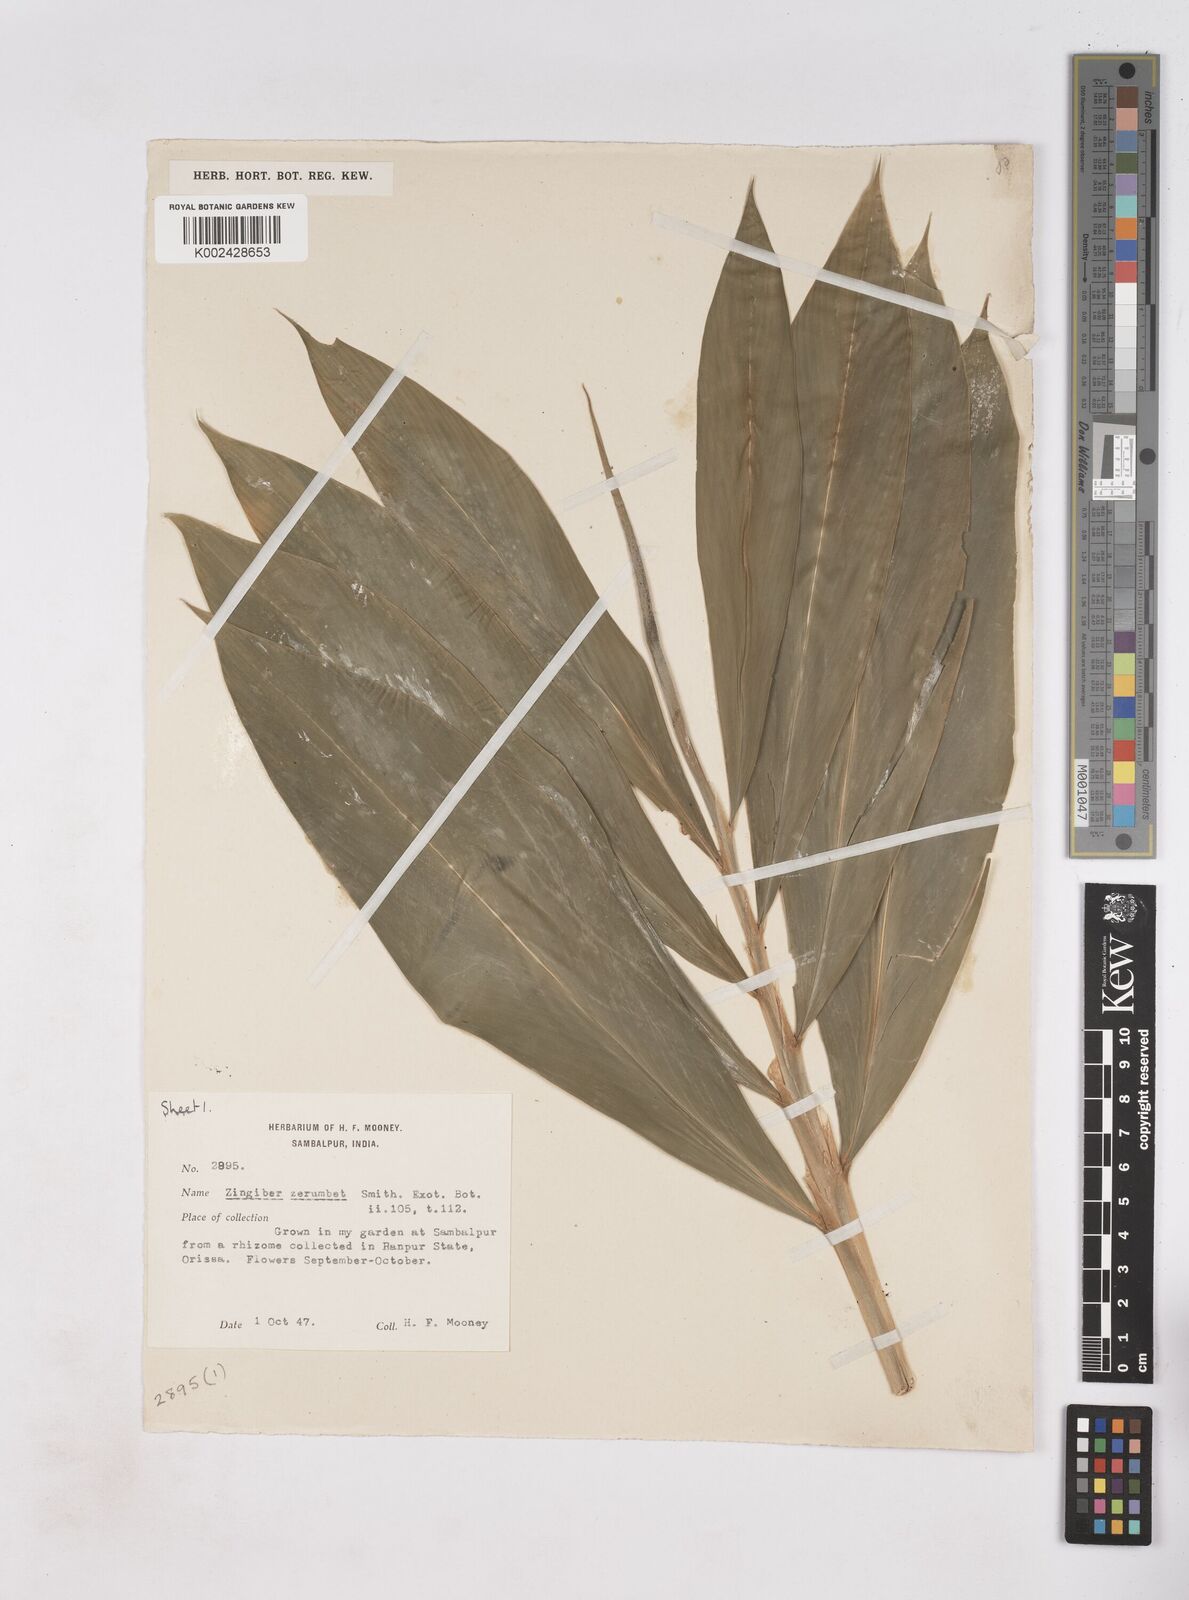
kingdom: Plantae
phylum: Tracheophyta
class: Liliopsida
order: Zingiberales
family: Zingiberaceae
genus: Zingiber
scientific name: Zingiber zerumbet
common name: Bitter ginger
